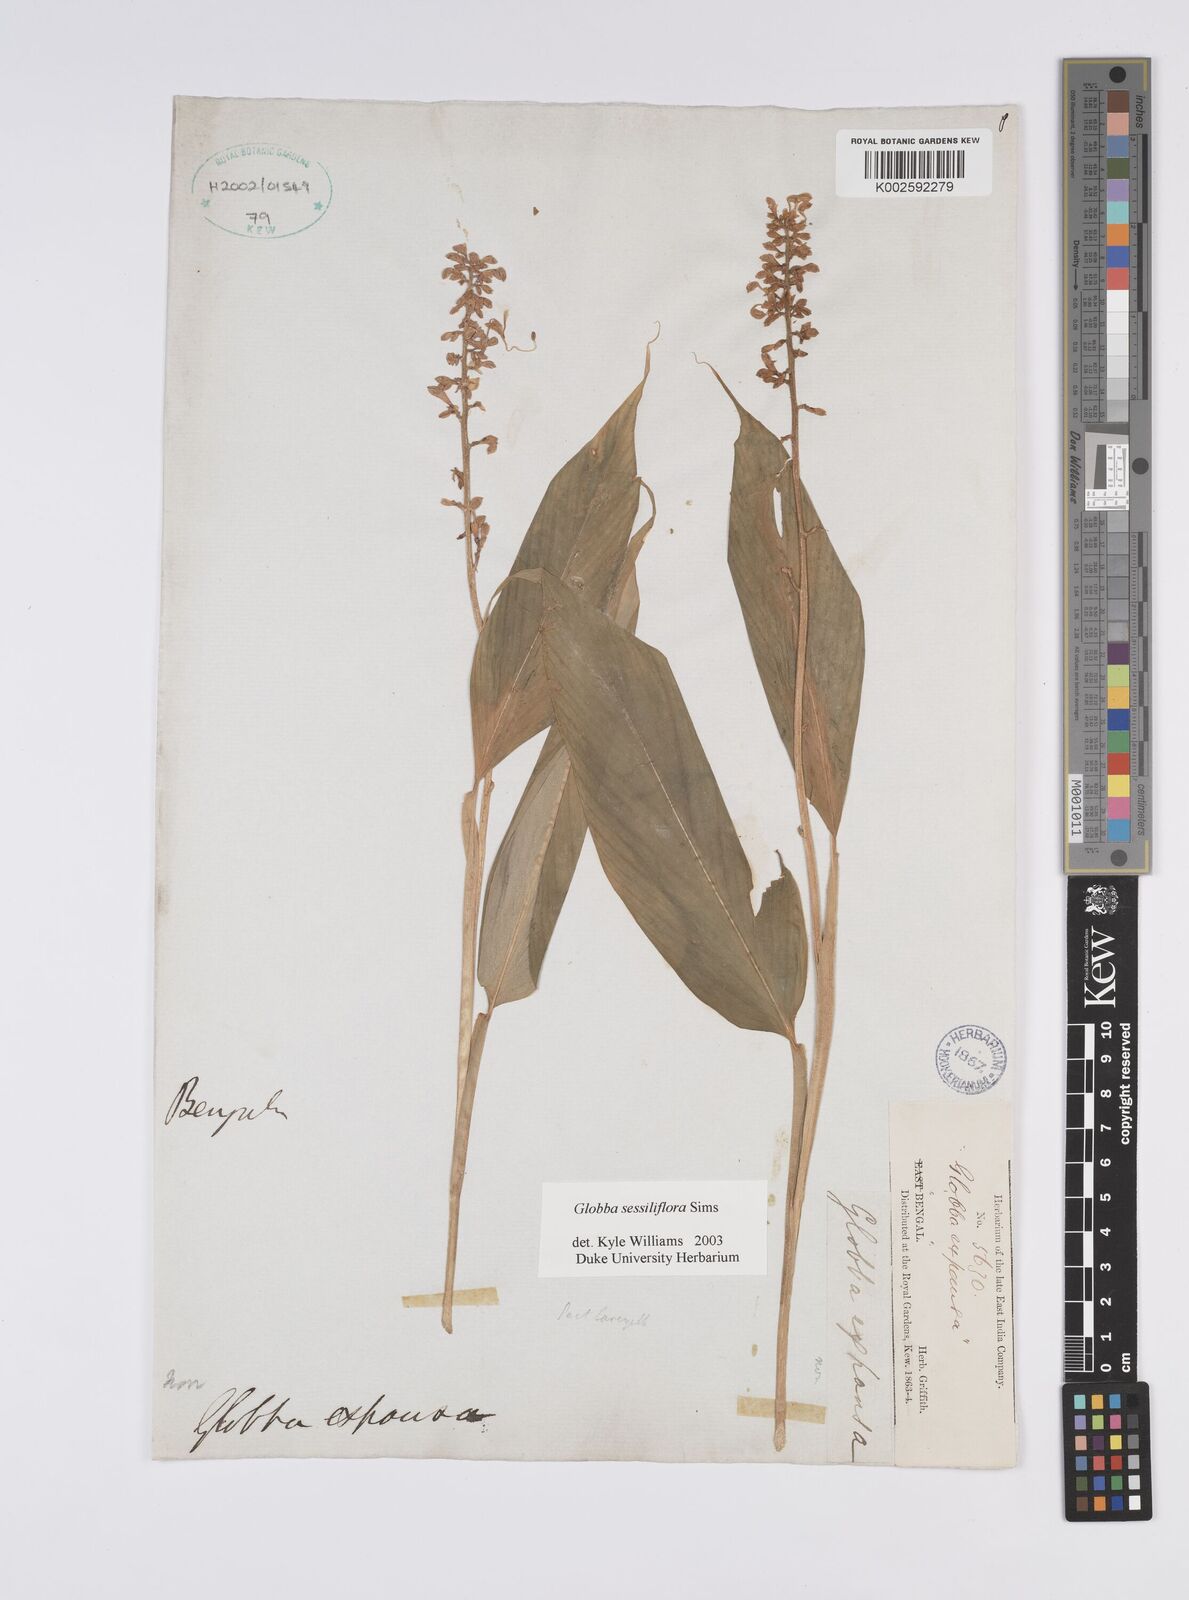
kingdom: Plantae
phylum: Tracheophyta
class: Liliopsida
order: Zingiberales
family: Zingiberaceae
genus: Globba
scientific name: Globba sessiliflora
